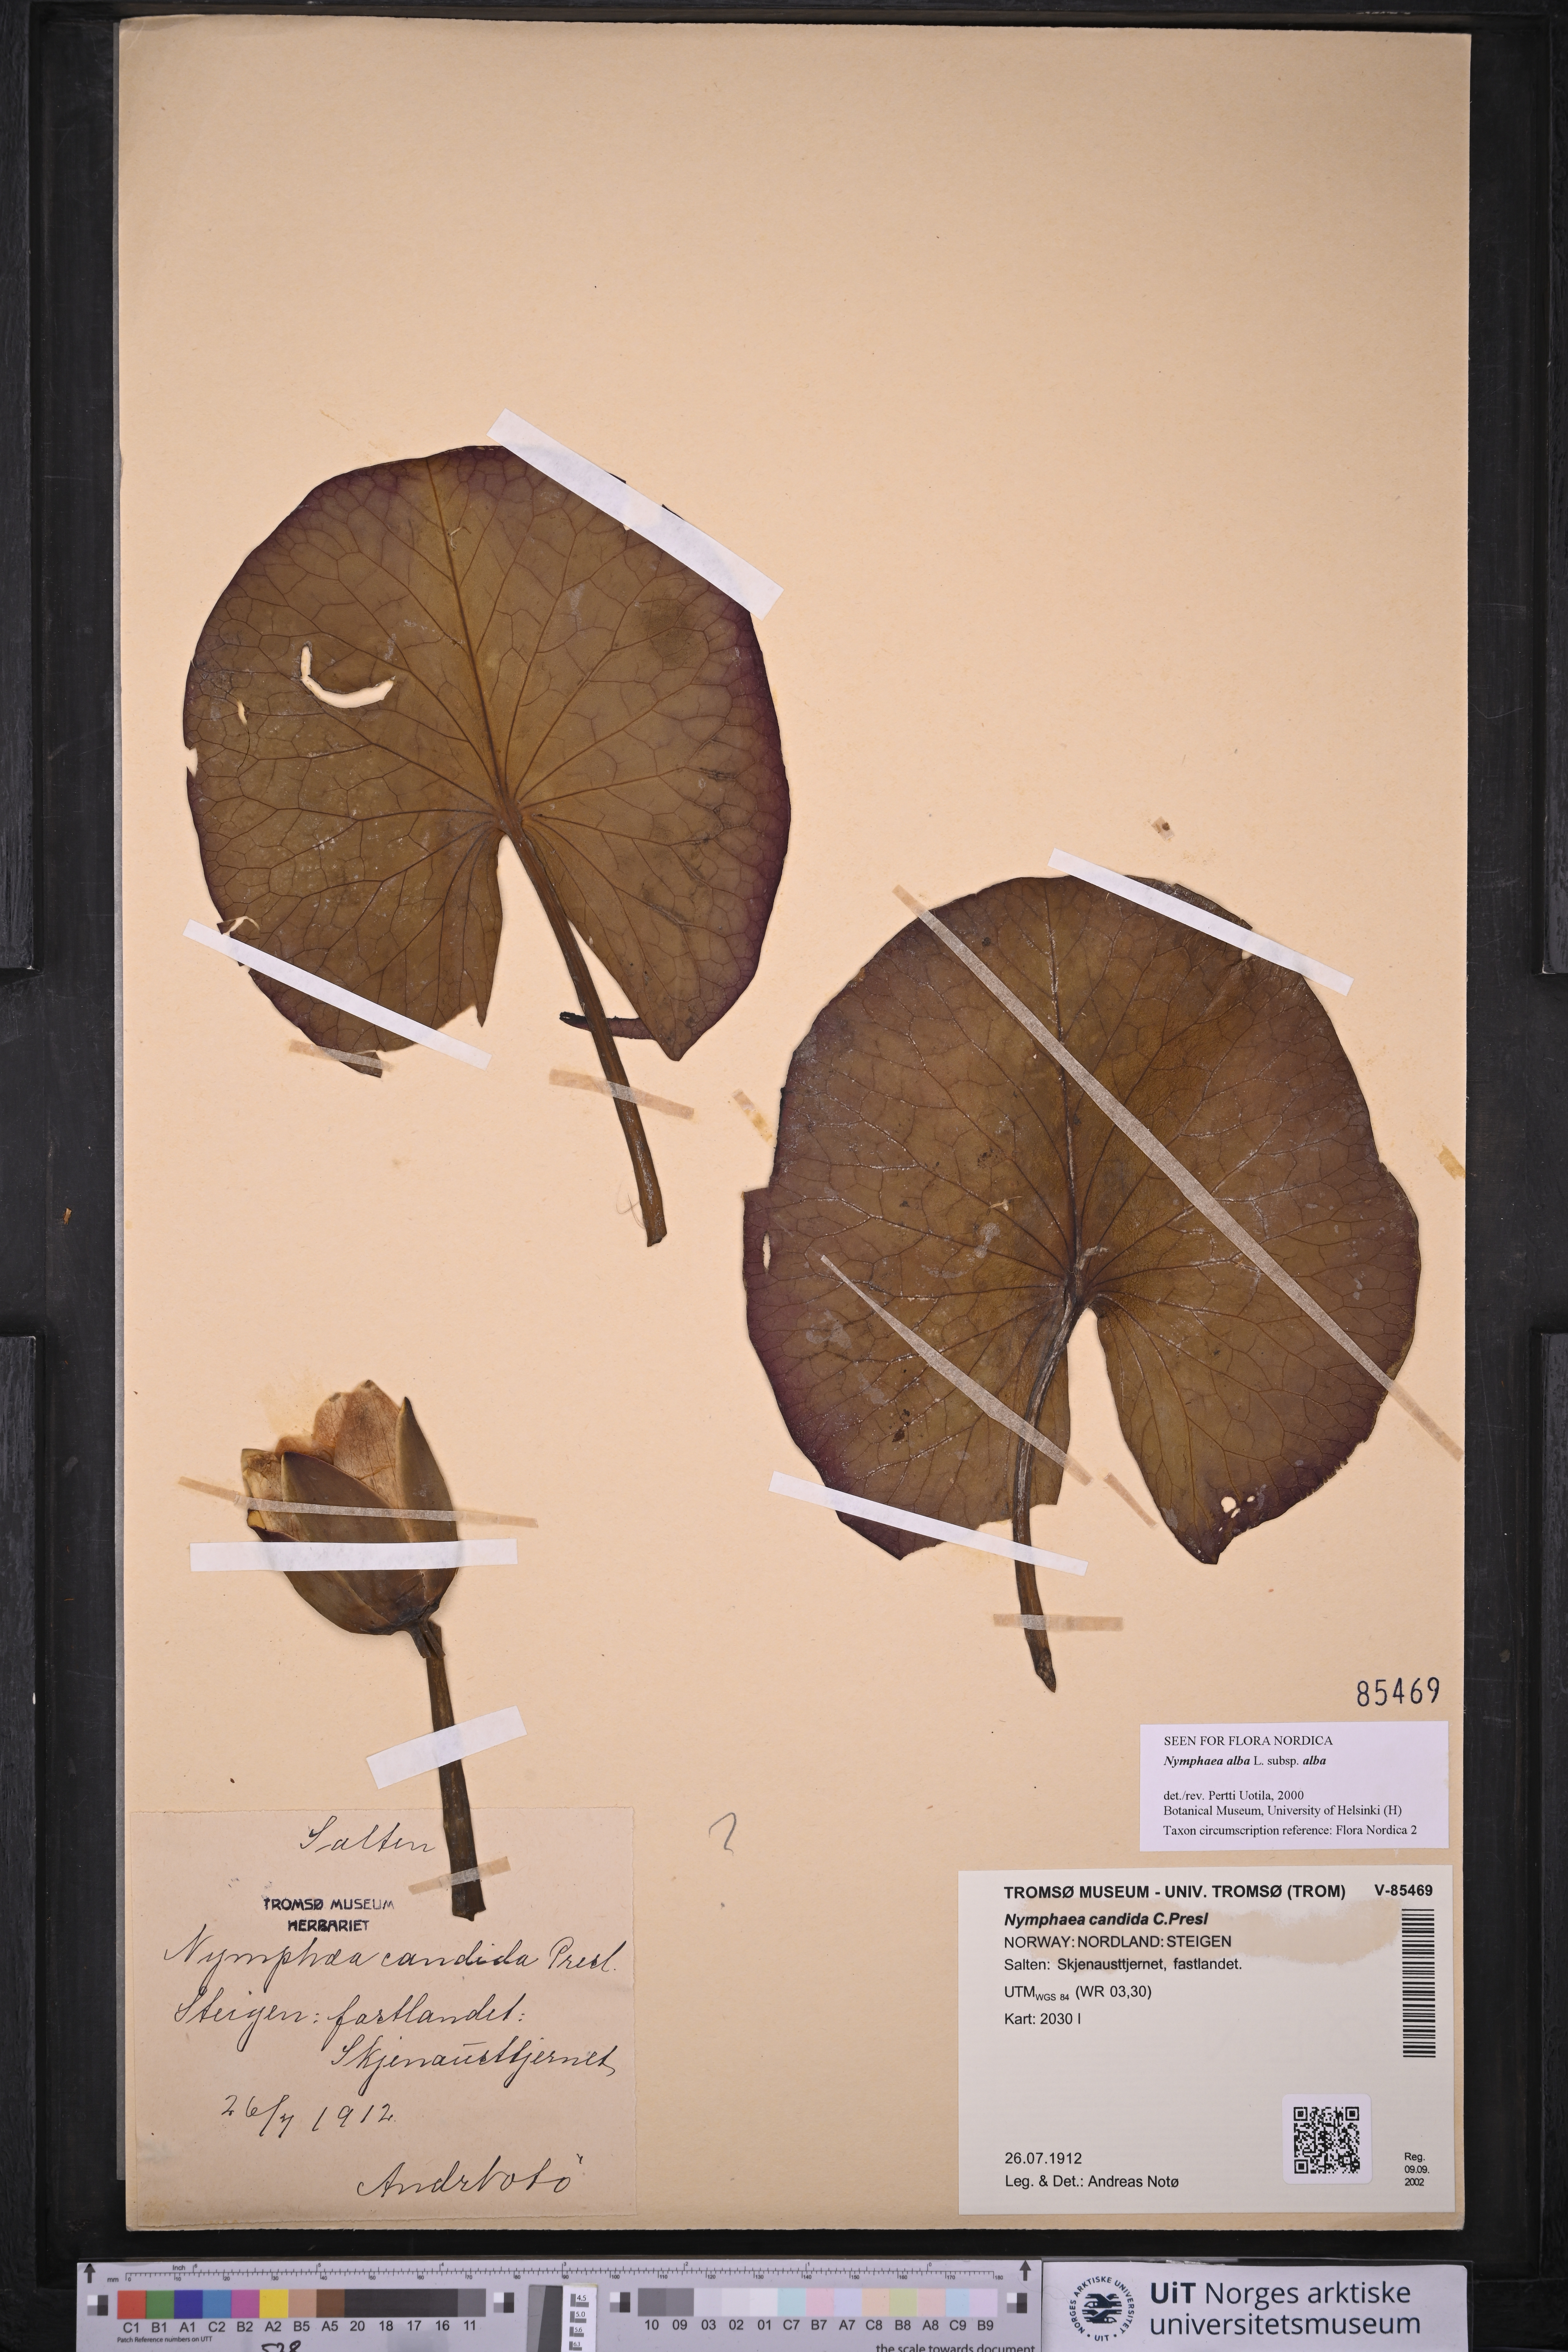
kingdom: Plantae
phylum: Tracheophyta
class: Magnoliopsida
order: Nymphaeales
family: Nymphaeaceae
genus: Nymphaea
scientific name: Nymphaea alba
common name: White water-lily
